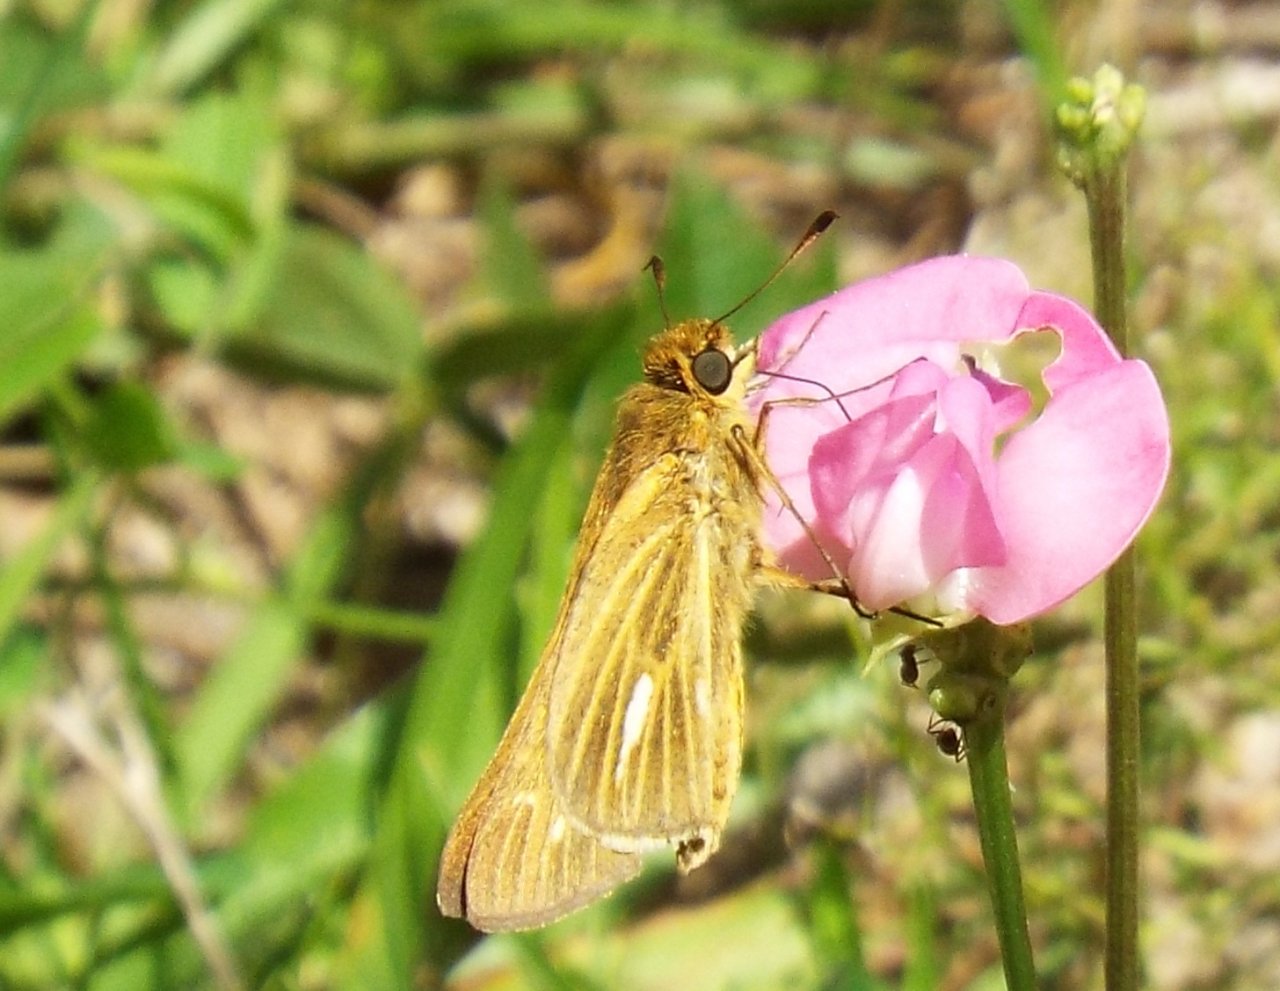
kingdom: Animalia
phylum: Arthropoda
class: Insecta
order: Lepidoptera
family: Hesperiidae
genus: Panoquina
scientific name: Panoquina panoquin
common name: Salt Marsh Skipper
